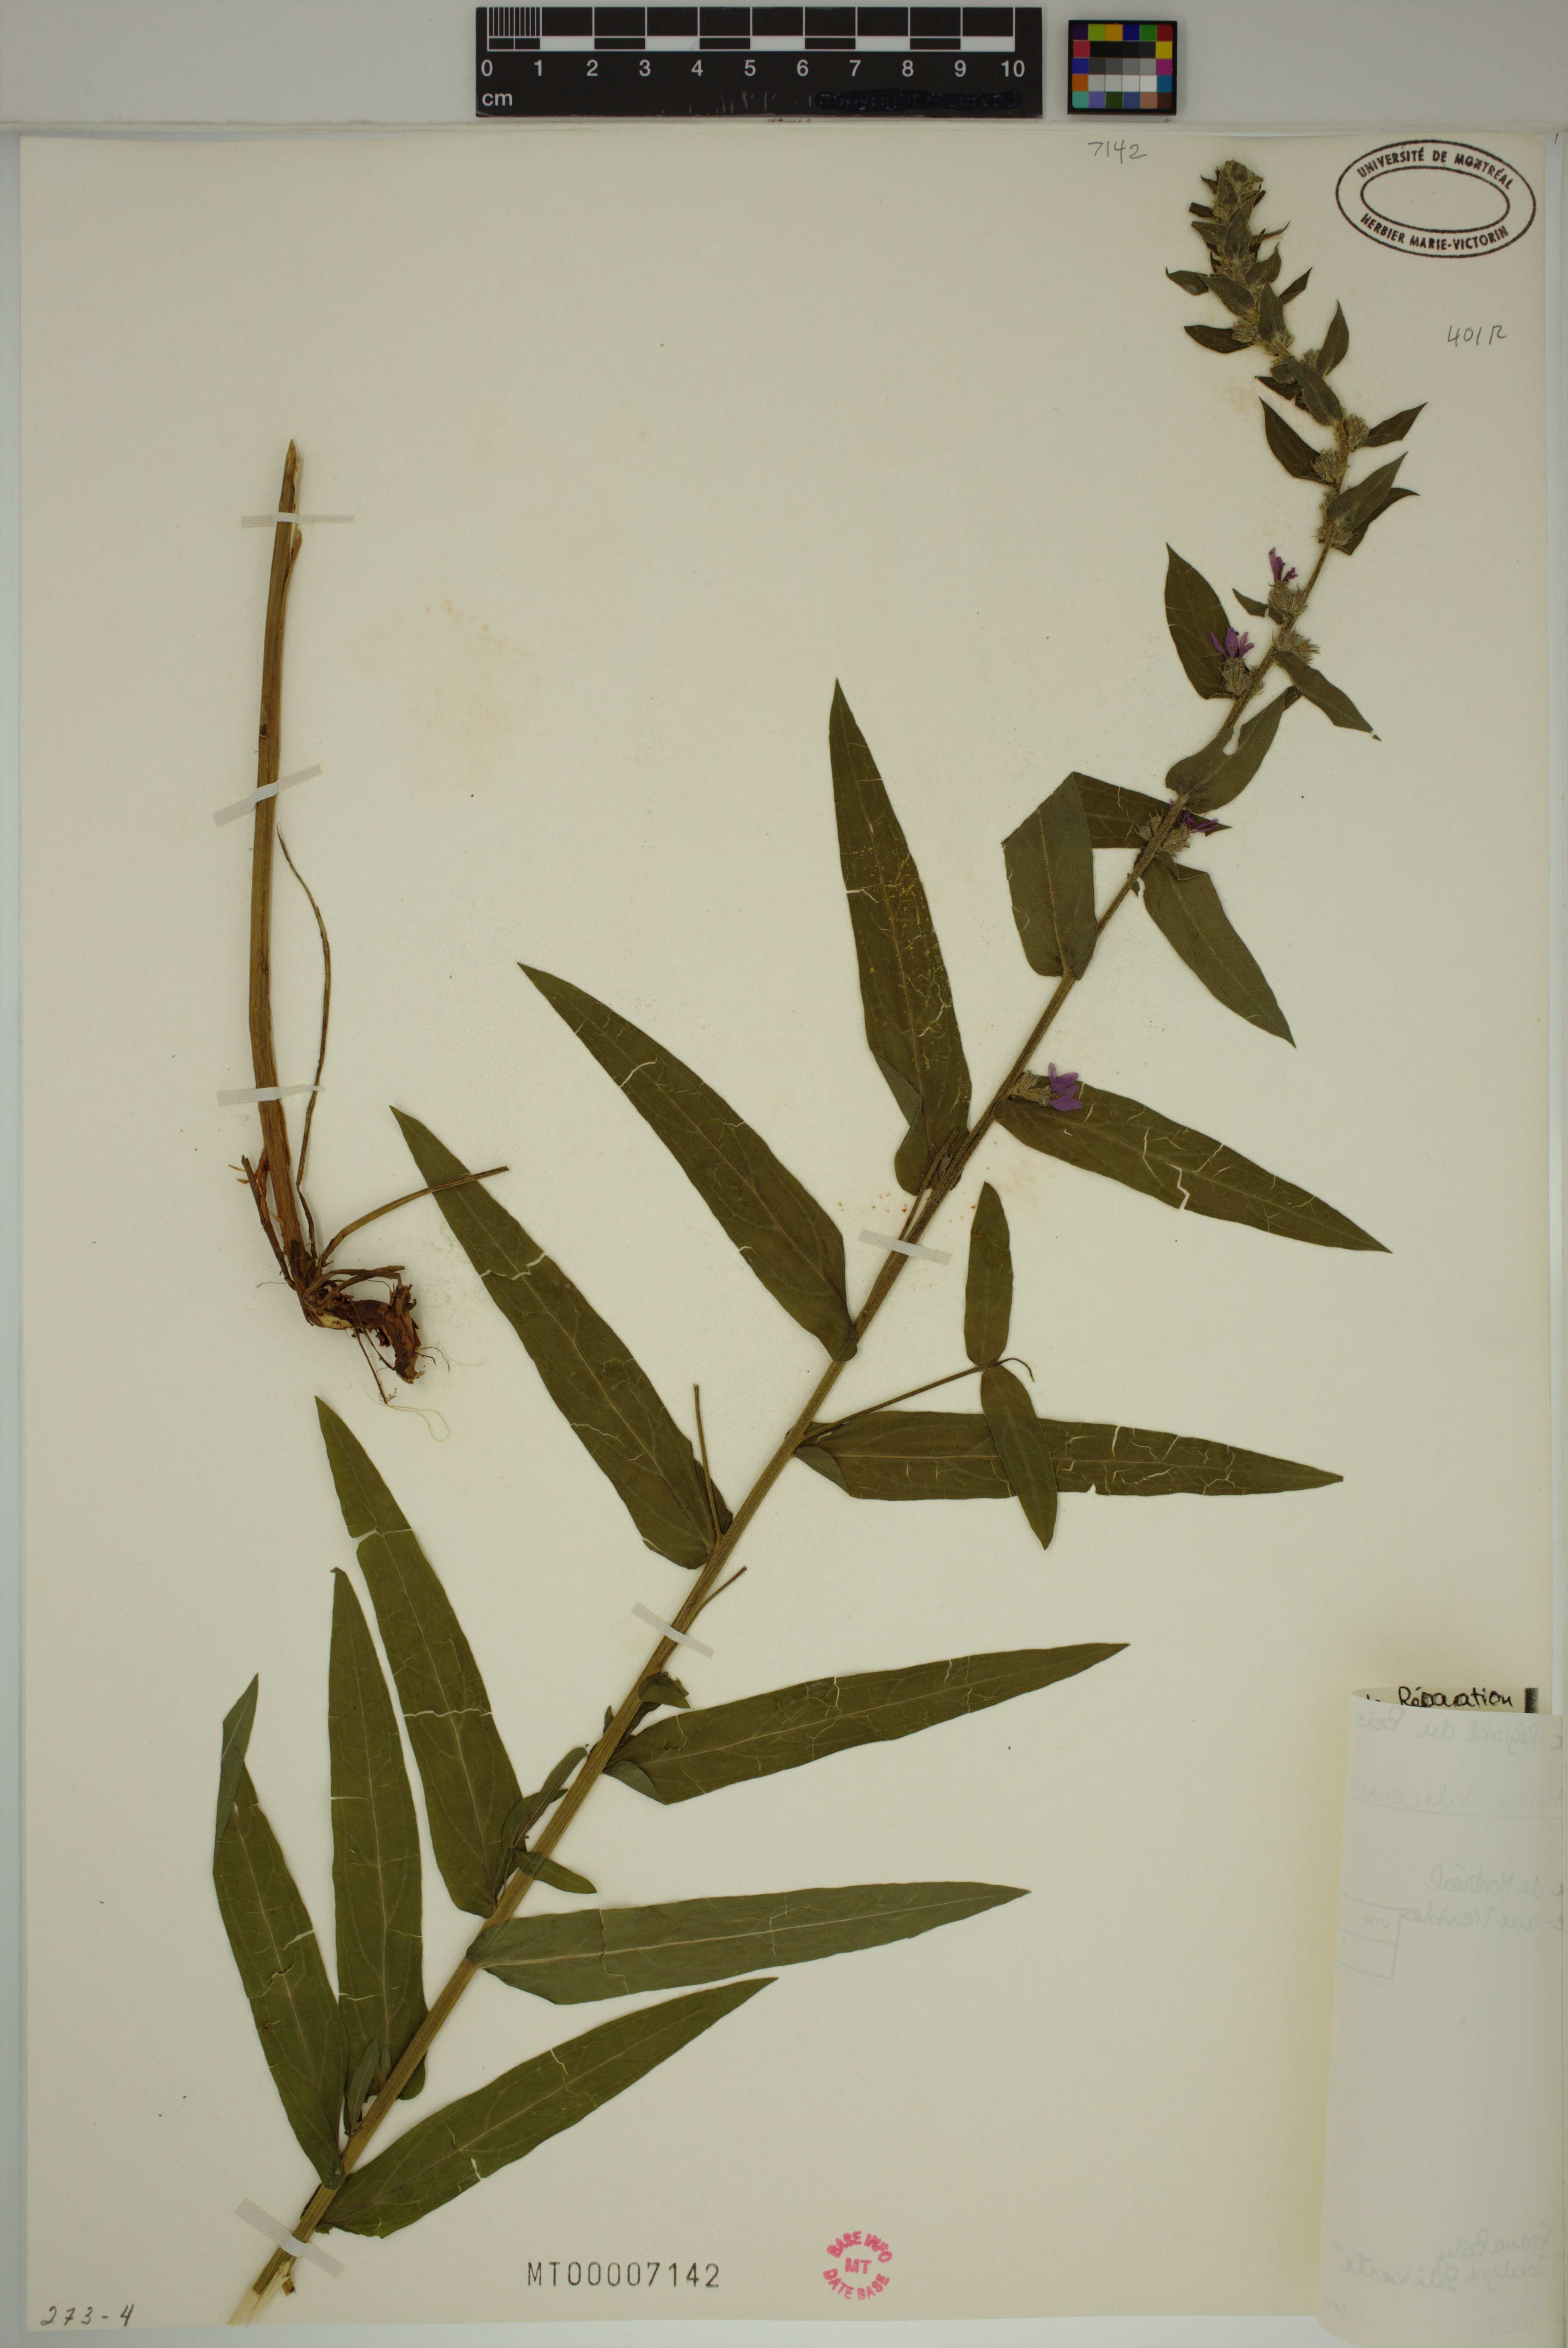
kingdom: Plantae
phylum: Tracheophyta
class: Magnoliopsida
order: Myrtales
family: Lythraceae
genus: Lythrum
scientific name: Lythrum salicaria
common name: Purple loosestrife
